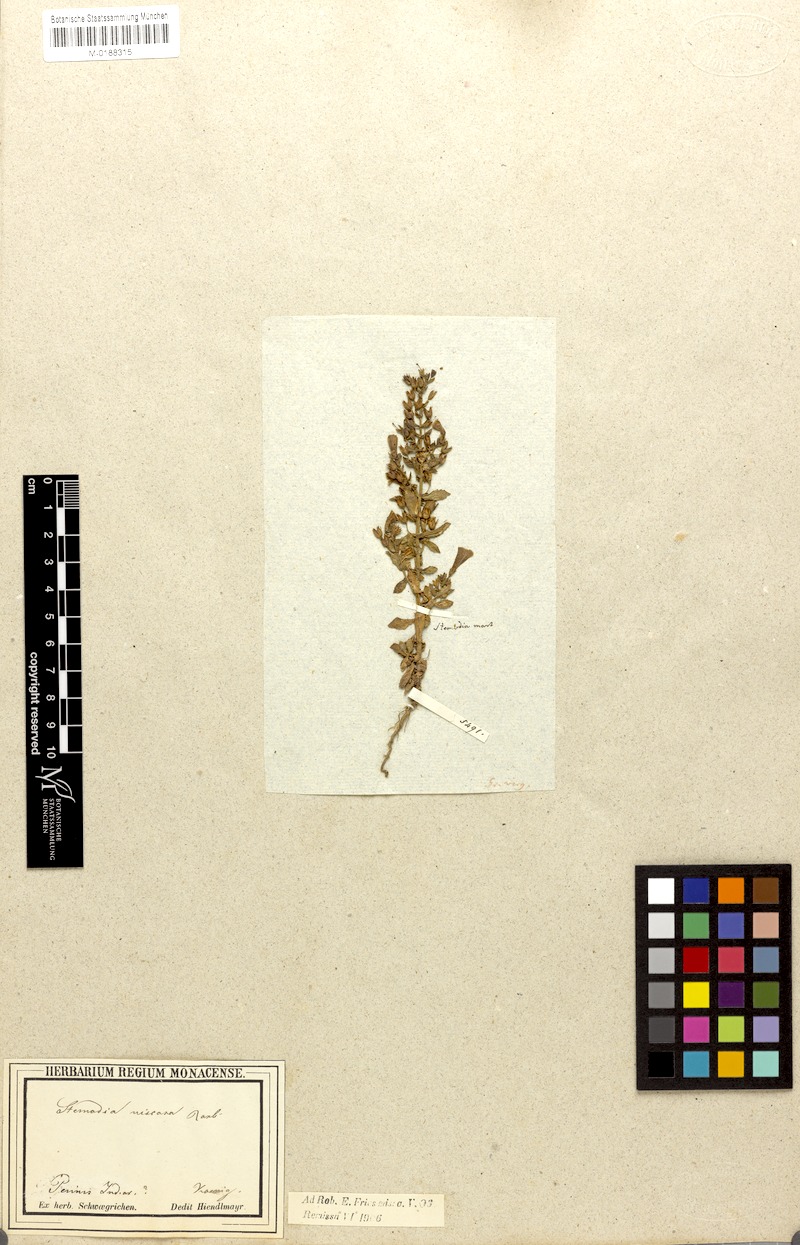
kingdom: Plantae
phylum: Tracheophyta
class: Magnoliopsida
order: Lamiales
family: Plantaginaceae
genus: Stemodia
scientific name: Stemodia viscosa
